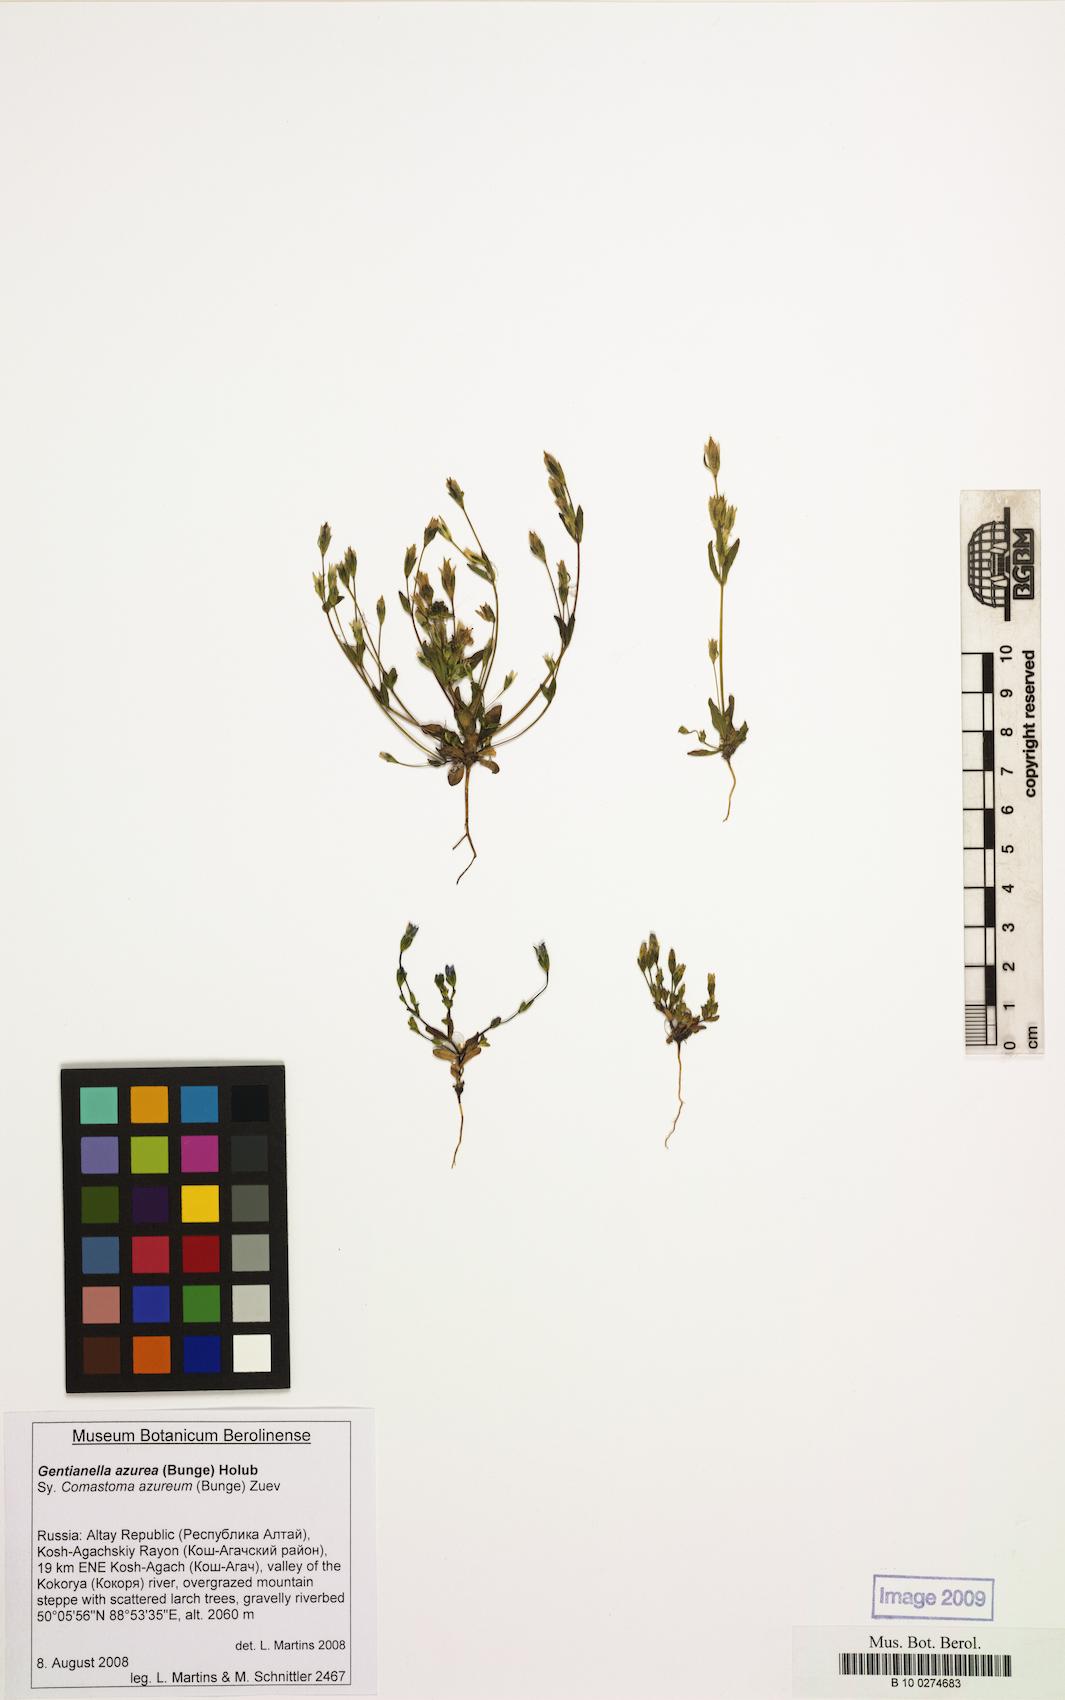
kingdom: Plantae
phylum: Tracheophyta
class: Magnoliopsida
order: Gentianales
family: Gentianaceae
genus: Gentianella
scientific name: Gentianella azurea
